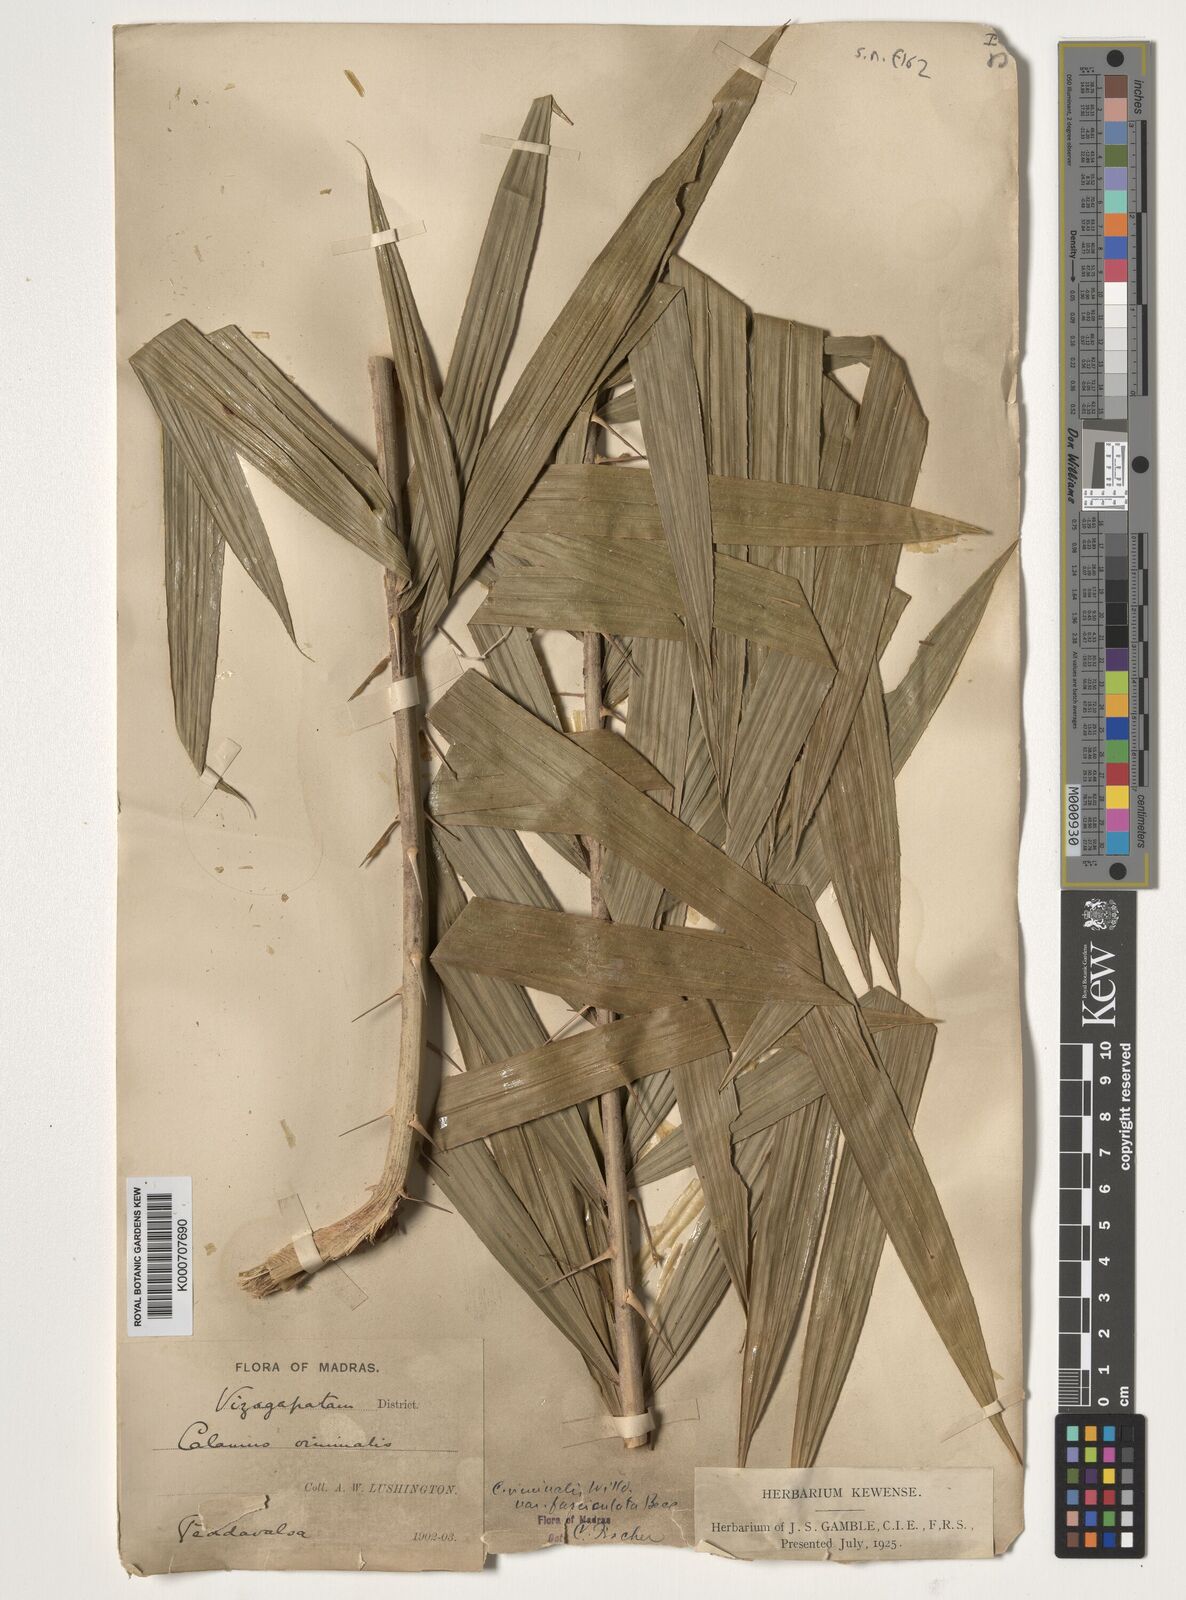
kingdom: Plantae
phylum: Tracheophyta
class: Liliopsida
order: Arecales
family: Arecaceae
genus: Calamus
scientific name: Calamus viminalis
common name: Osier-like rattan palm
